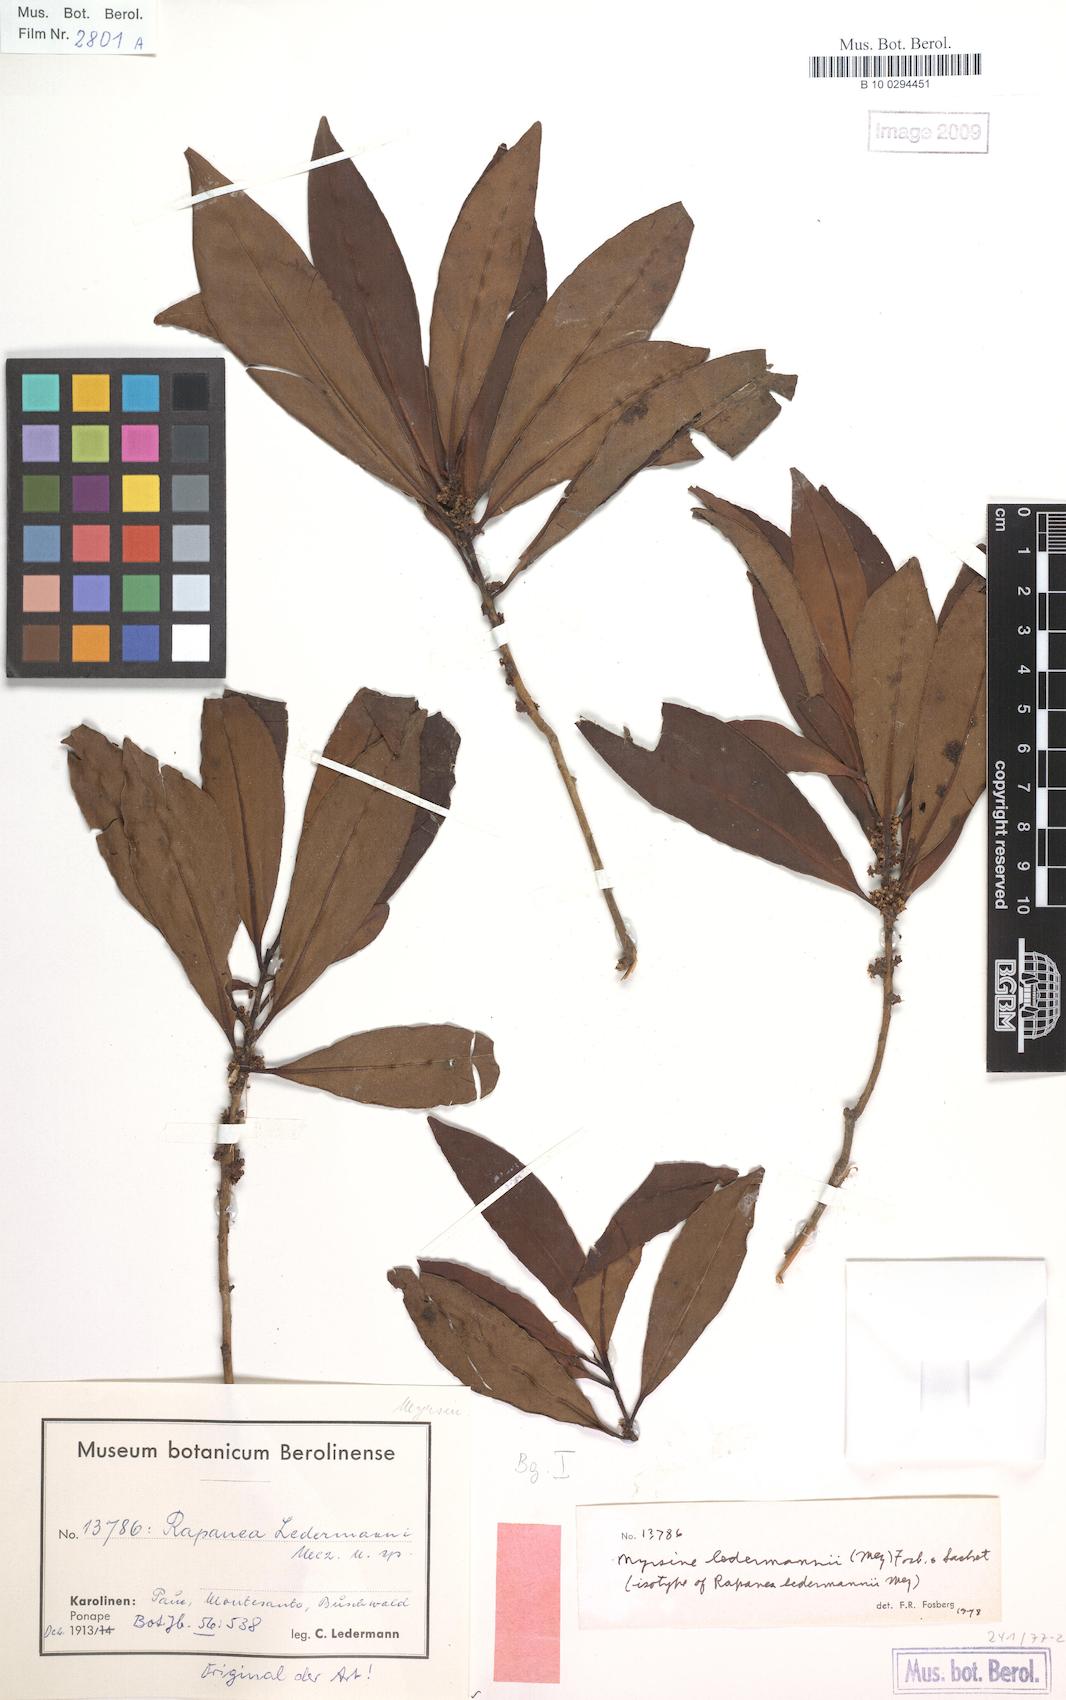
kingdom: Plantae
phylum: Tracheophyta
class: Magnoliopsida
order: Ericales
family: Primulaceae
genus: Myrsine
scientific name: Myrsine ledermannii
